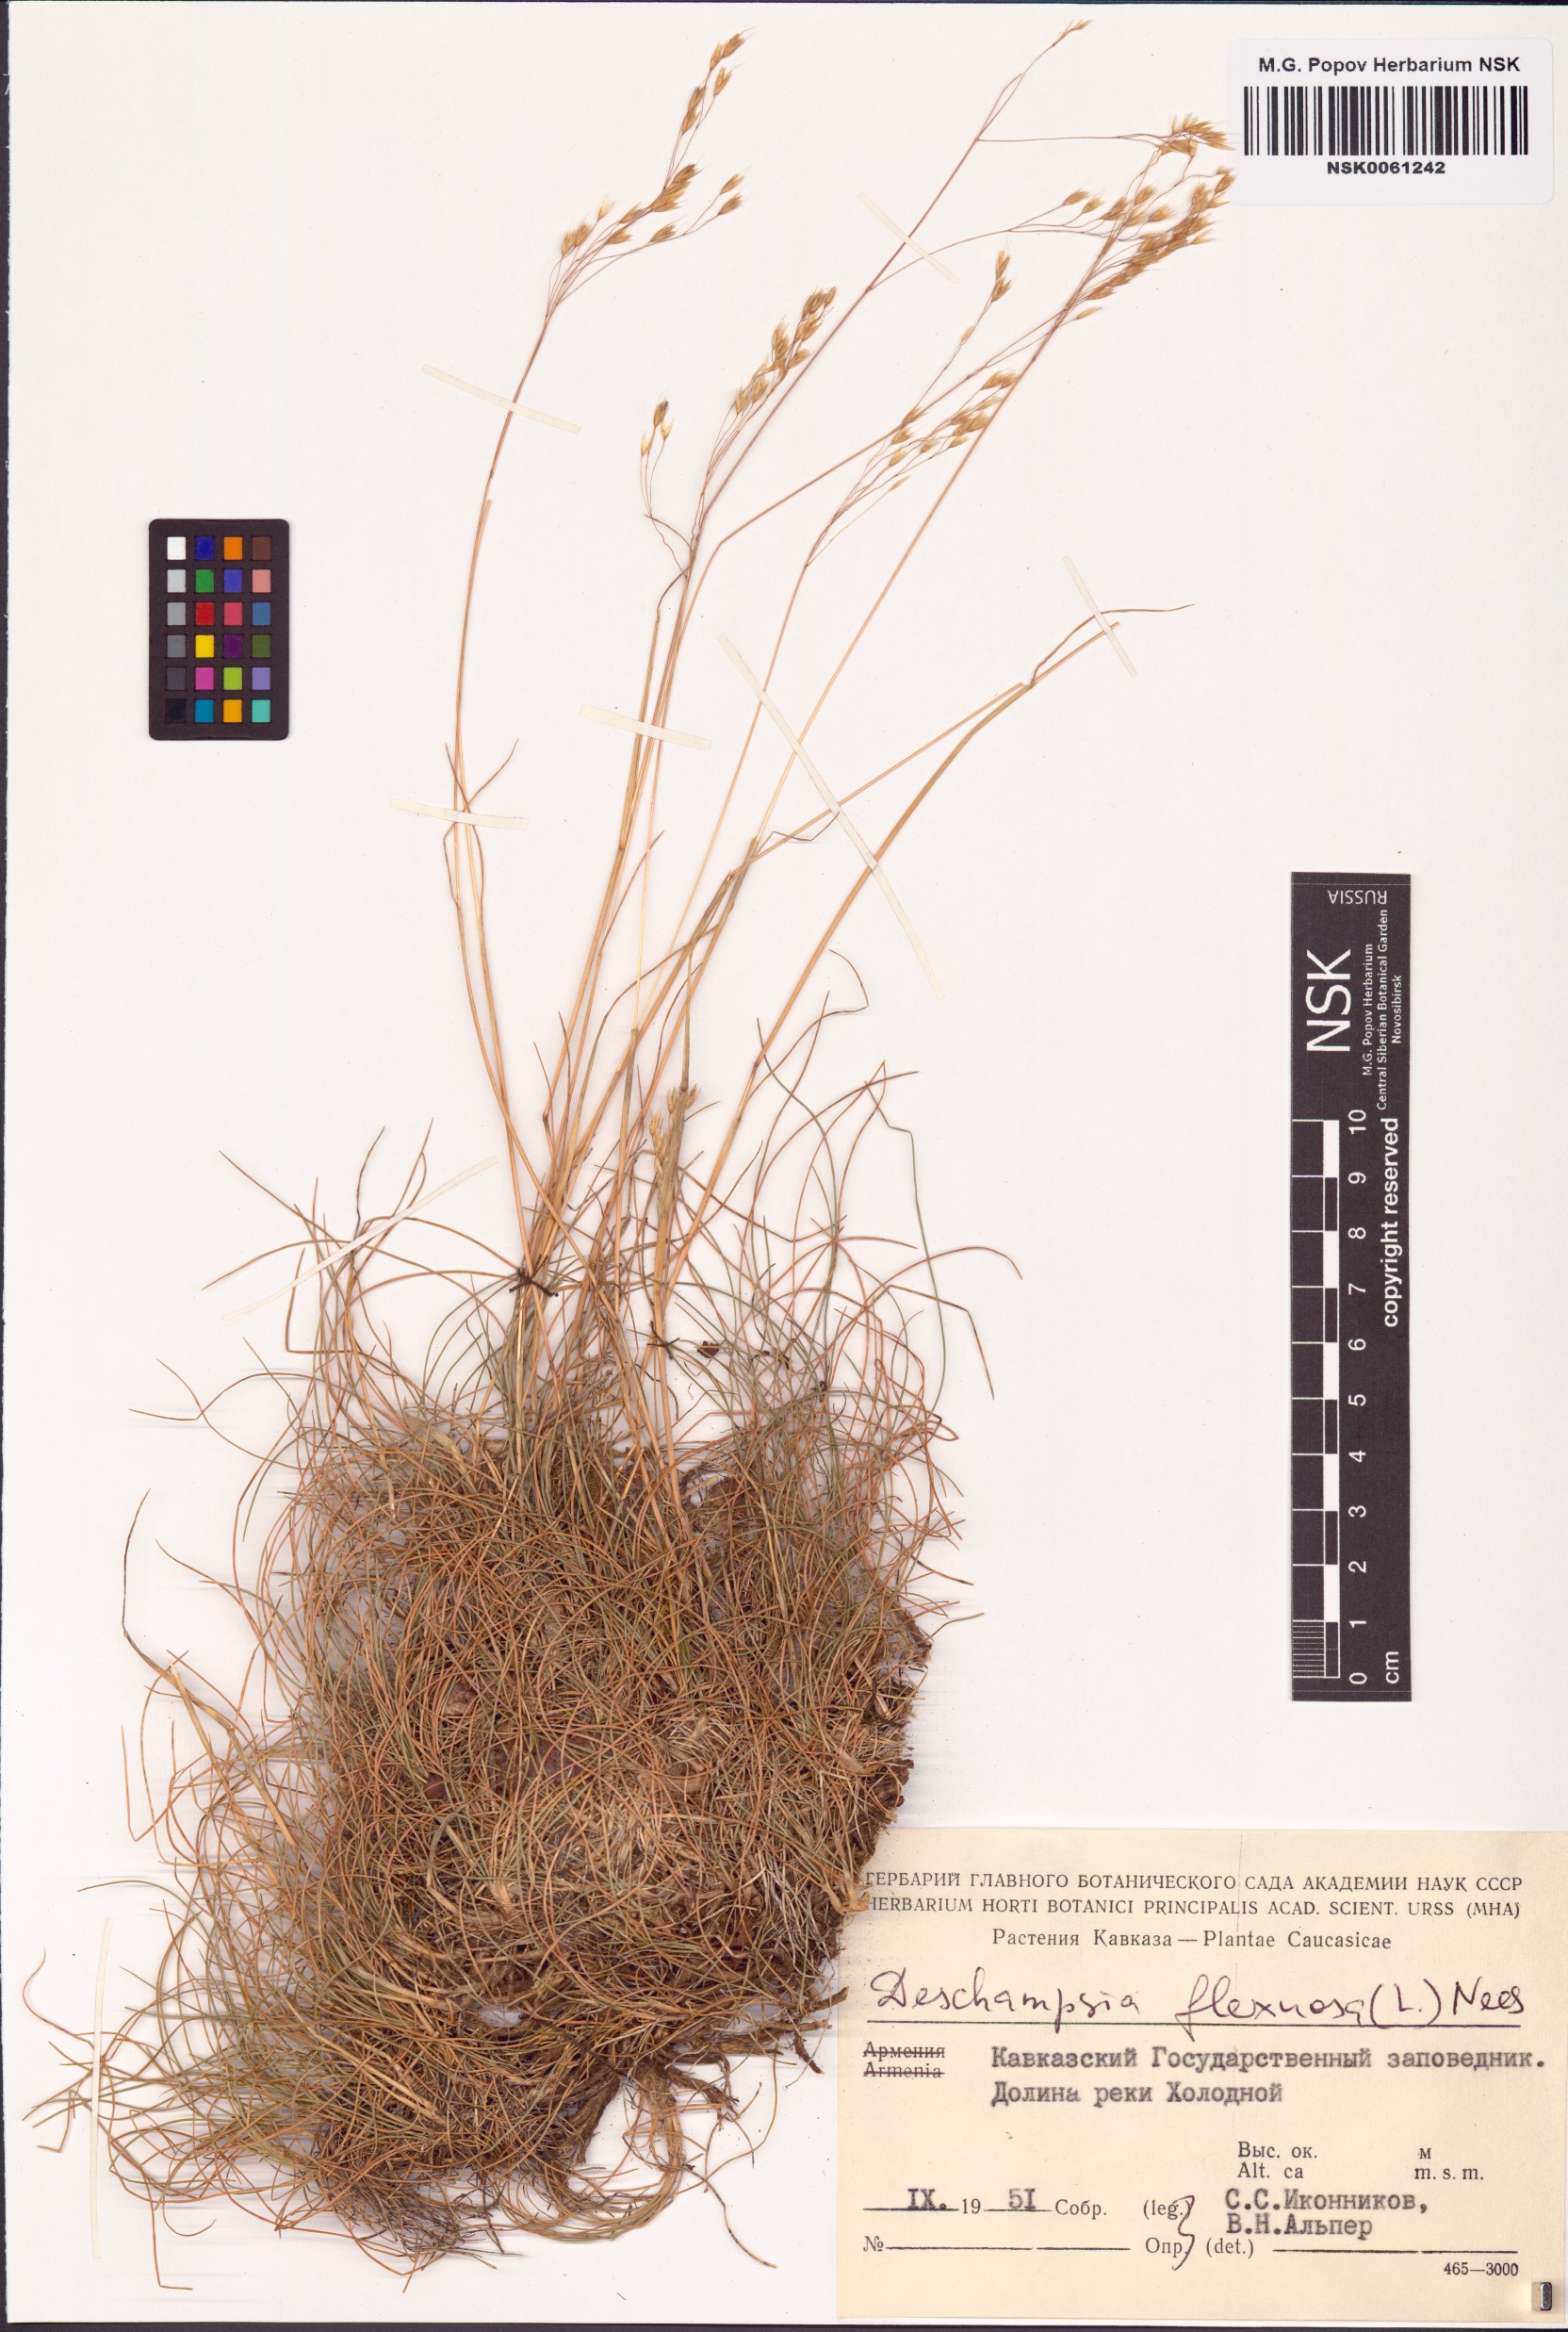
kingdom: Plantae
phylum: Tracheophyta
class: Liliopsida
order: Poales
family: Poaceae
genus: Avenella
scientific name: Avenella flexuosa
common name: Wavy hairgrass
